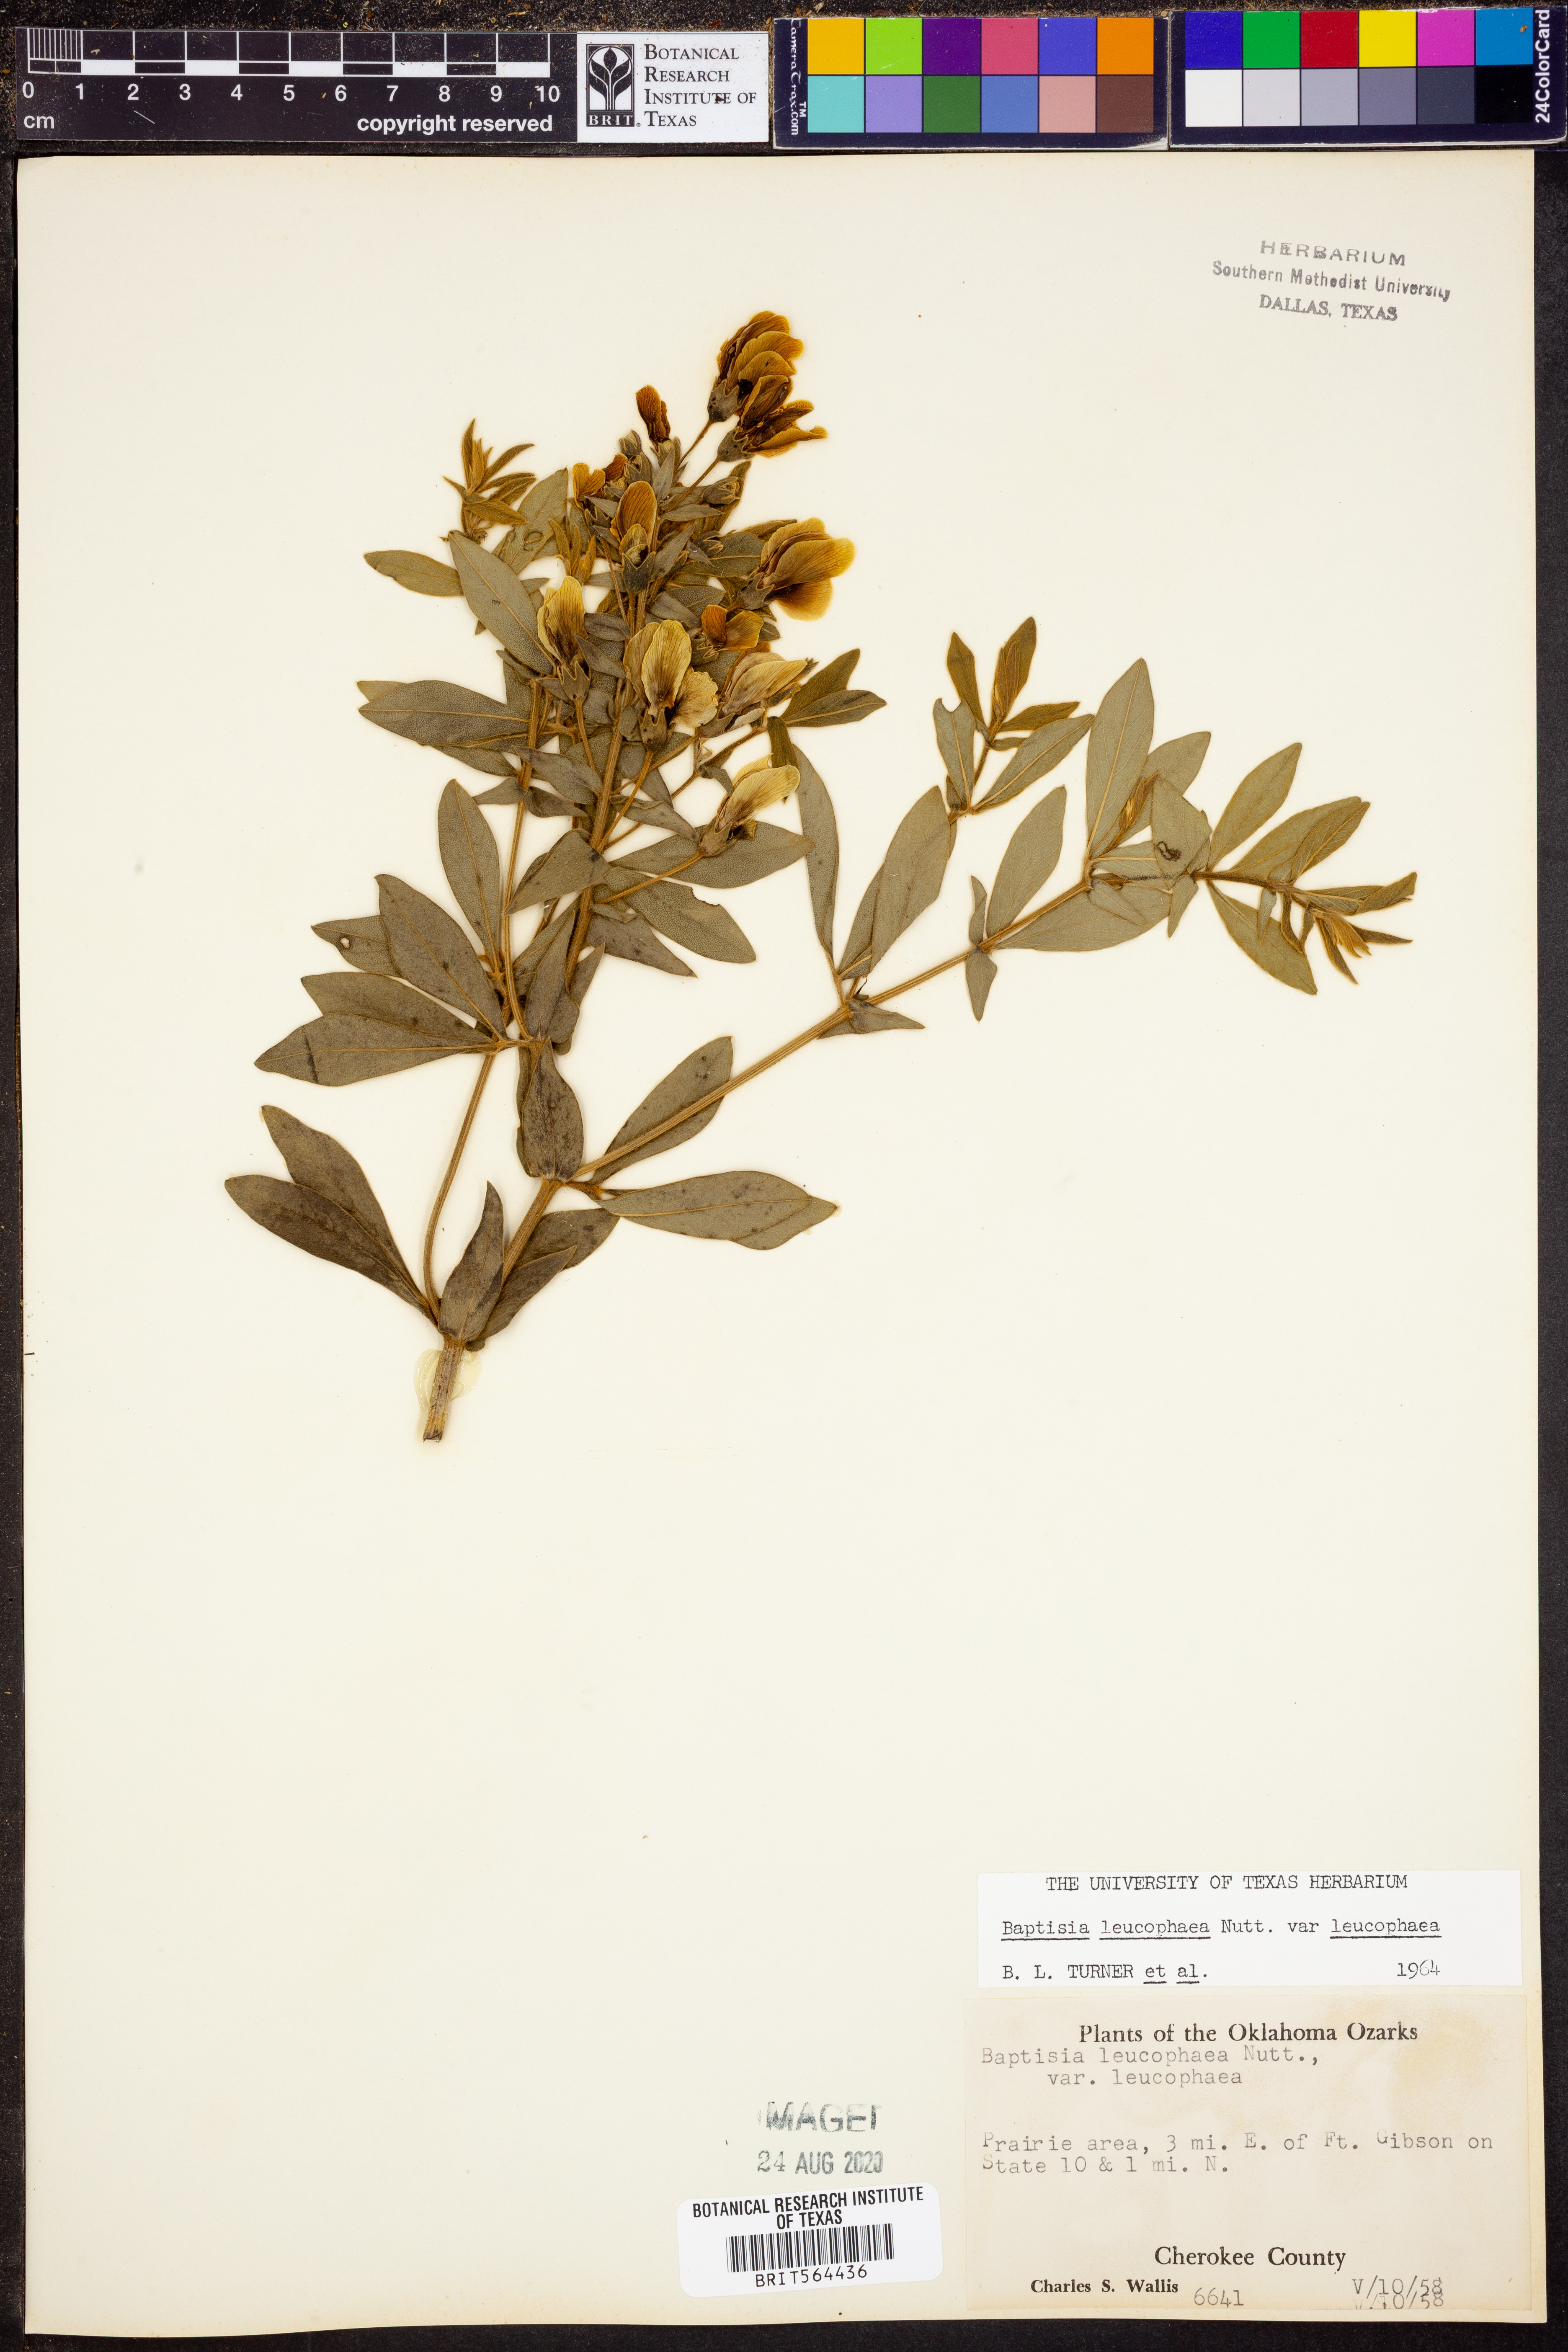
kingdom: Plantae
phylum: Tracheophyta
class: Magnoliopsida
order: Fabales
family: Fabaceae
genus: Baptisia
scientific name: Baptisia bracteata
